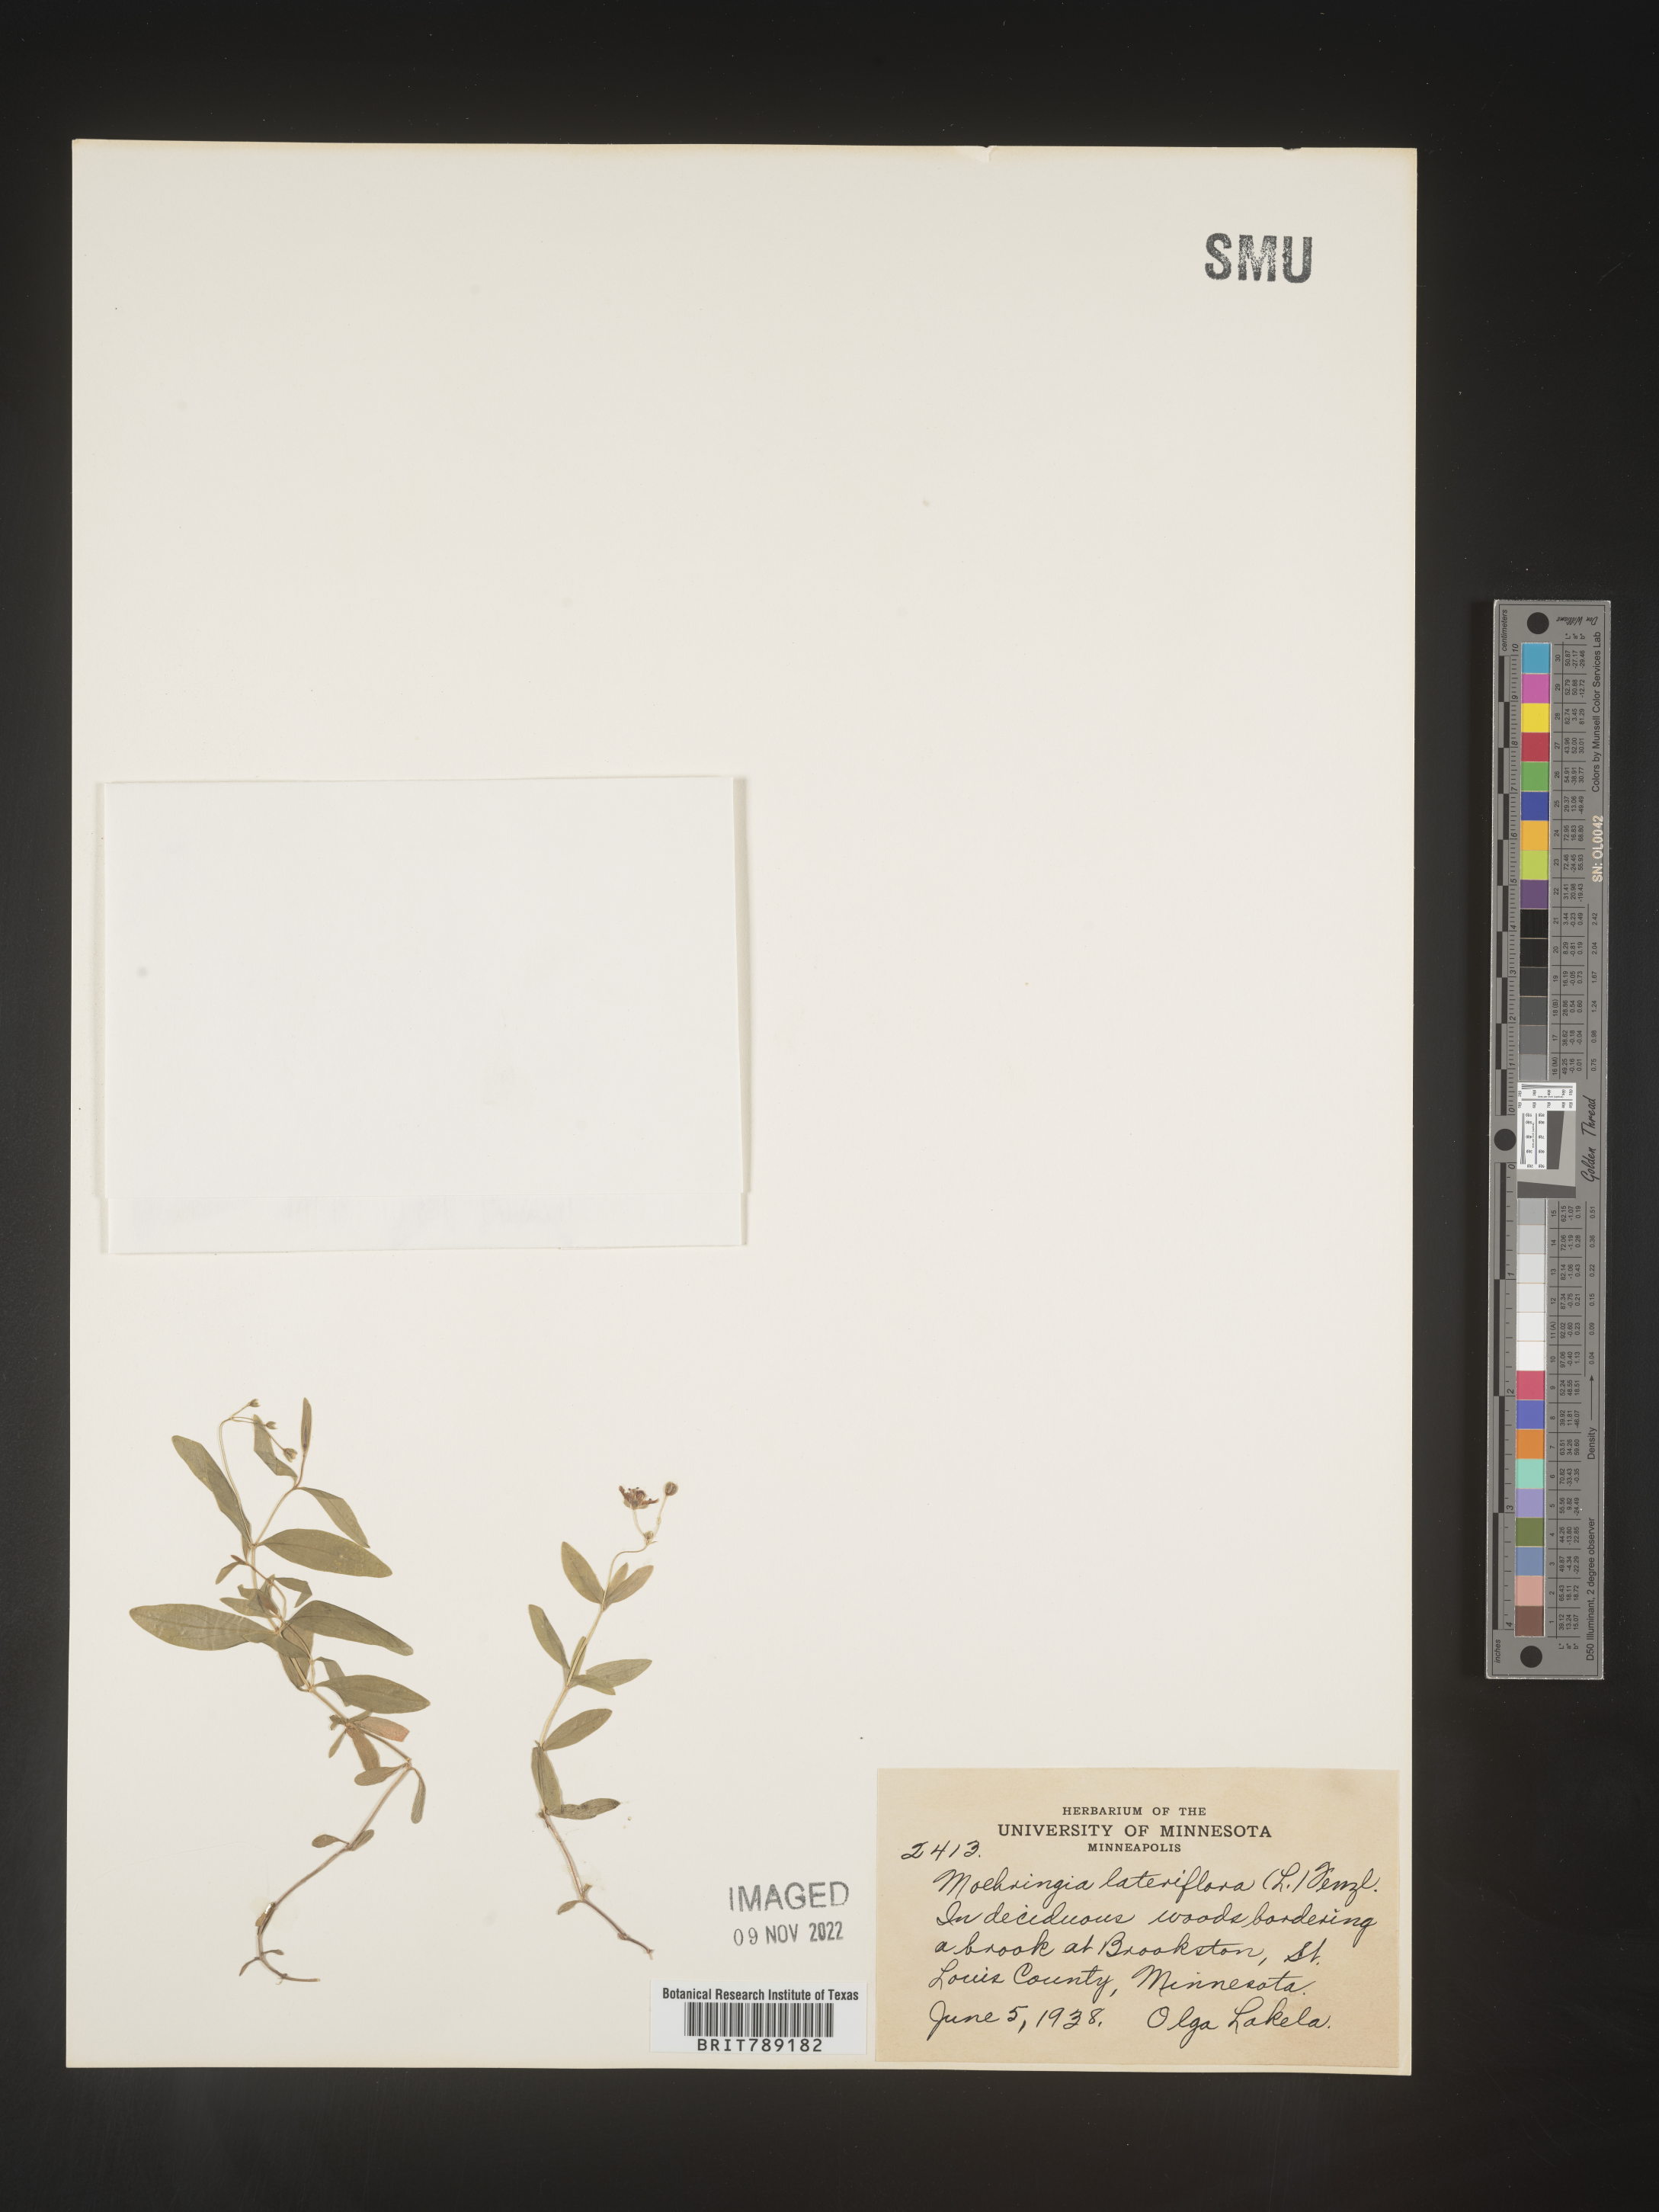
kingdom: Plantae
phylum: Tracheophyta
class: Magnoliopsida
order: Caryophyllales
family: Caryophyllaceae
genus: Arenaria
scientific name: Arenaria
